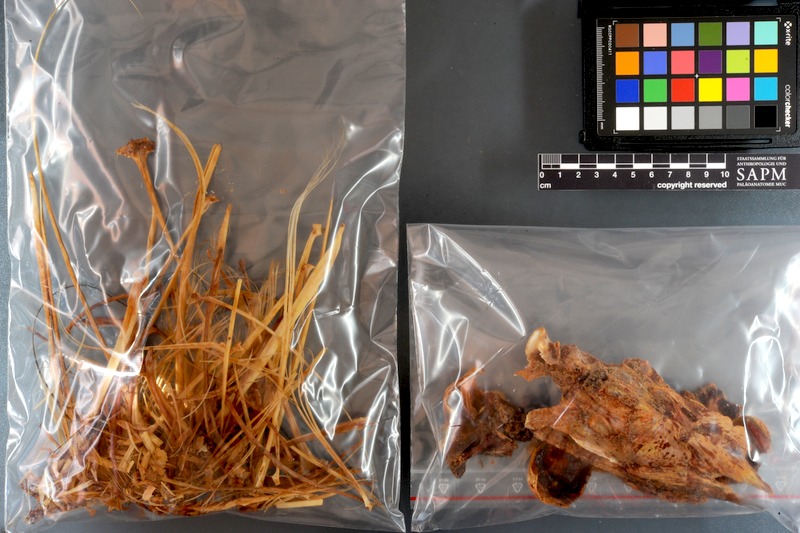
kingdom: Animalia
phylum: Chordata
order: Perciformes
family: Istiophoridae
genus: Istiophorus
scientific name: Istiophorus platypterus
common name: Sailfish
